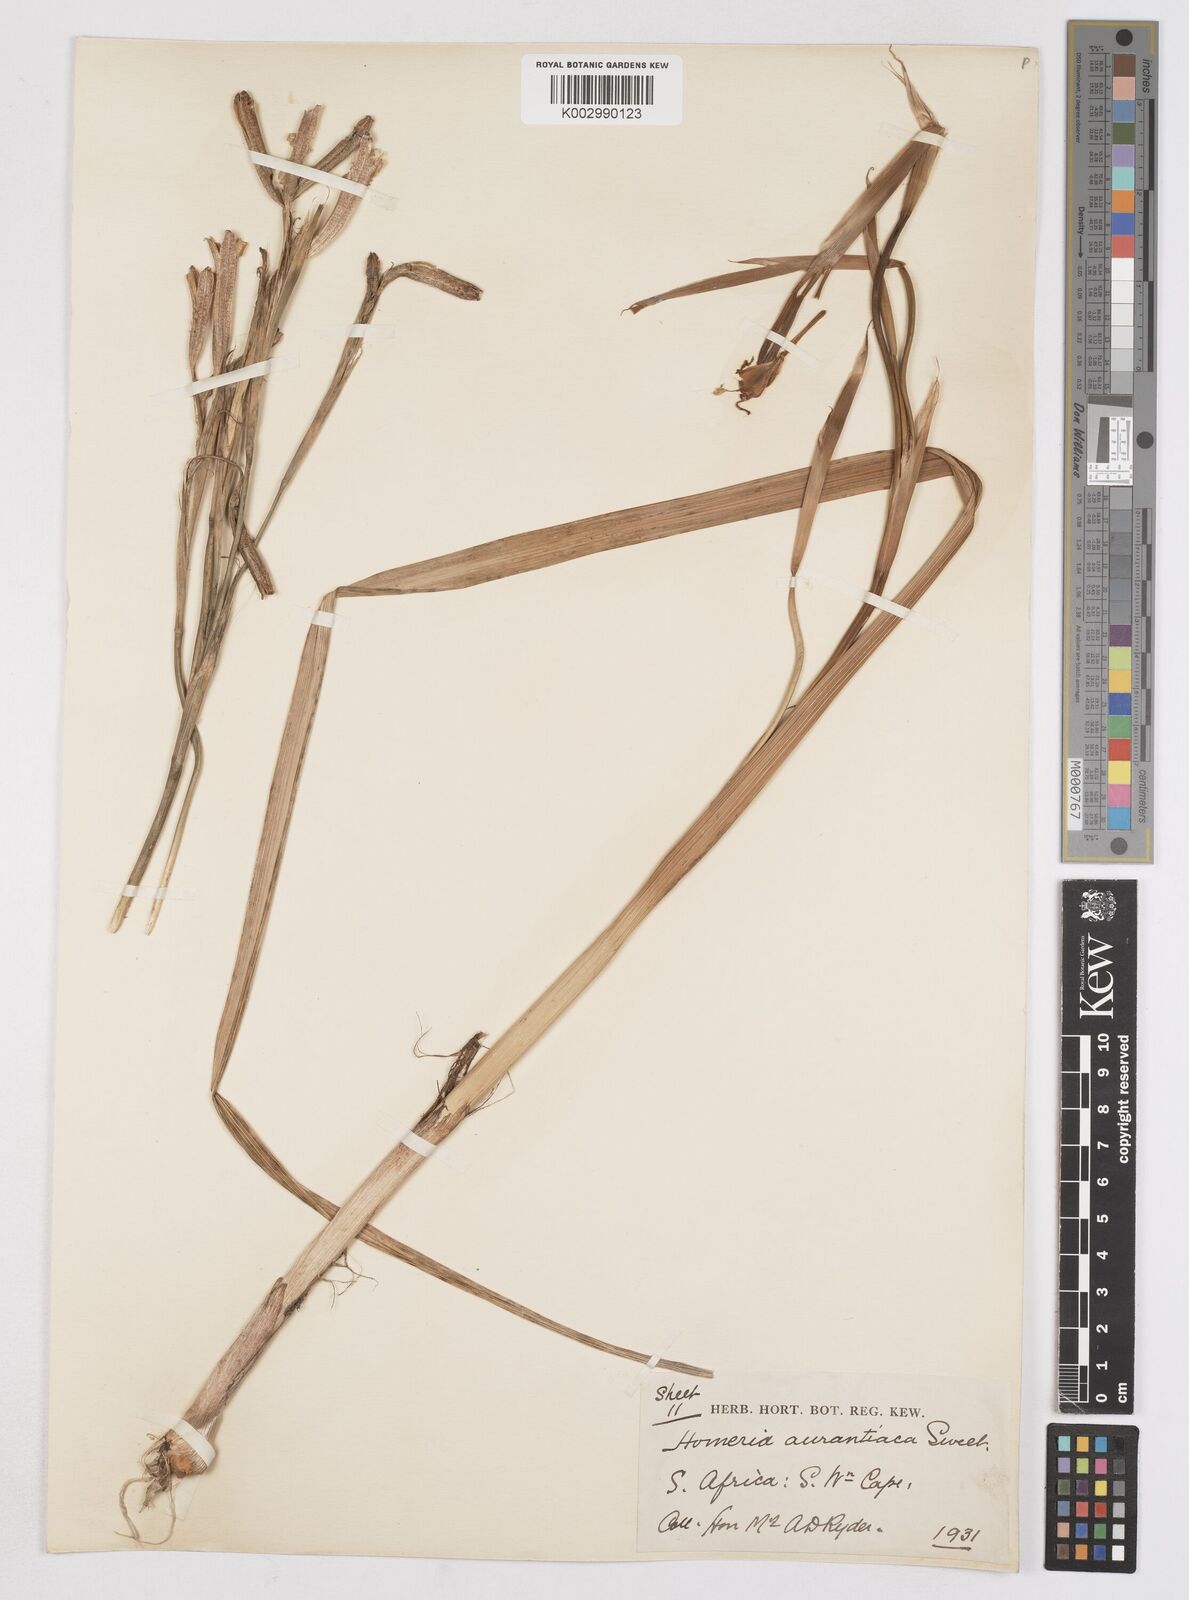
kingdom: Plantae
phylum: Tracheophyta
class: Liliopsida
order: Asparagales
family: Iridaceae
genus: Moraea
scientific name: Moraea flaccida
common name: One-leaf cape-tulip
